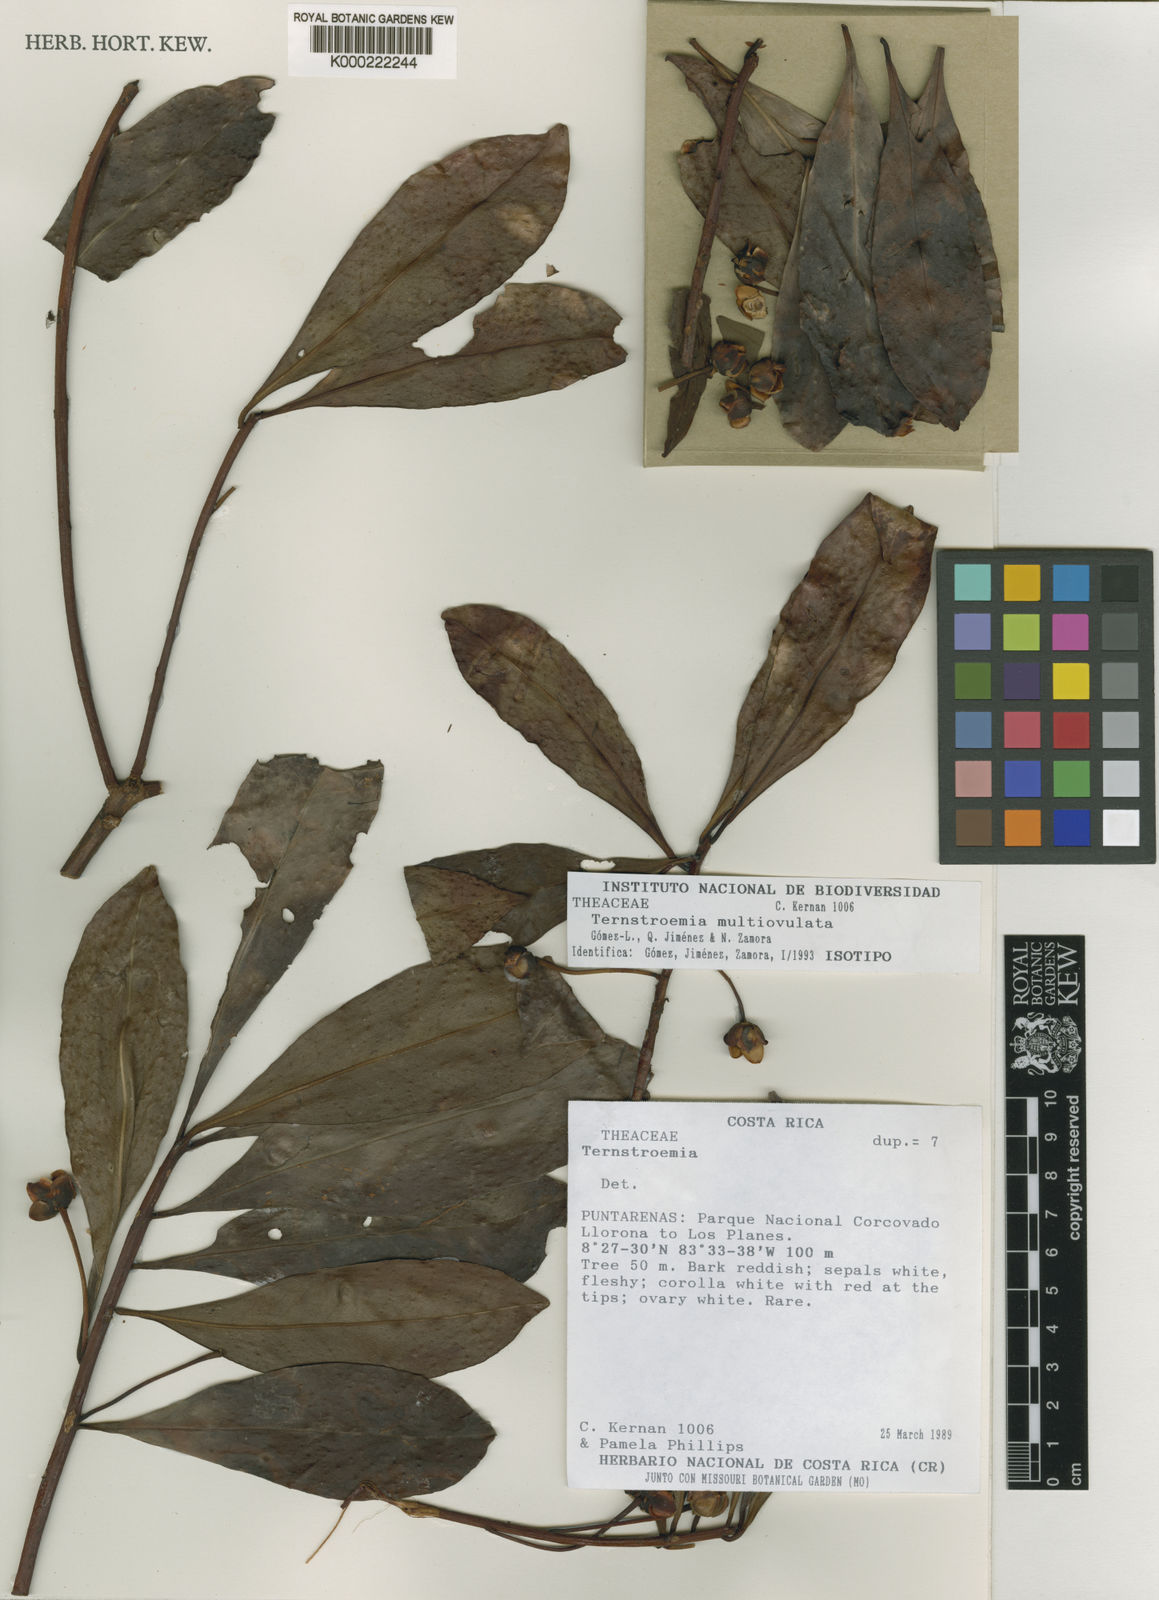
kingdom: Plantae
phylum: Tracheophyta
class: Magnoliopsida
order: Ericales
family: Pentaphylacaceae
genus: Ternstroemia
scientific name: Ternstroemia
